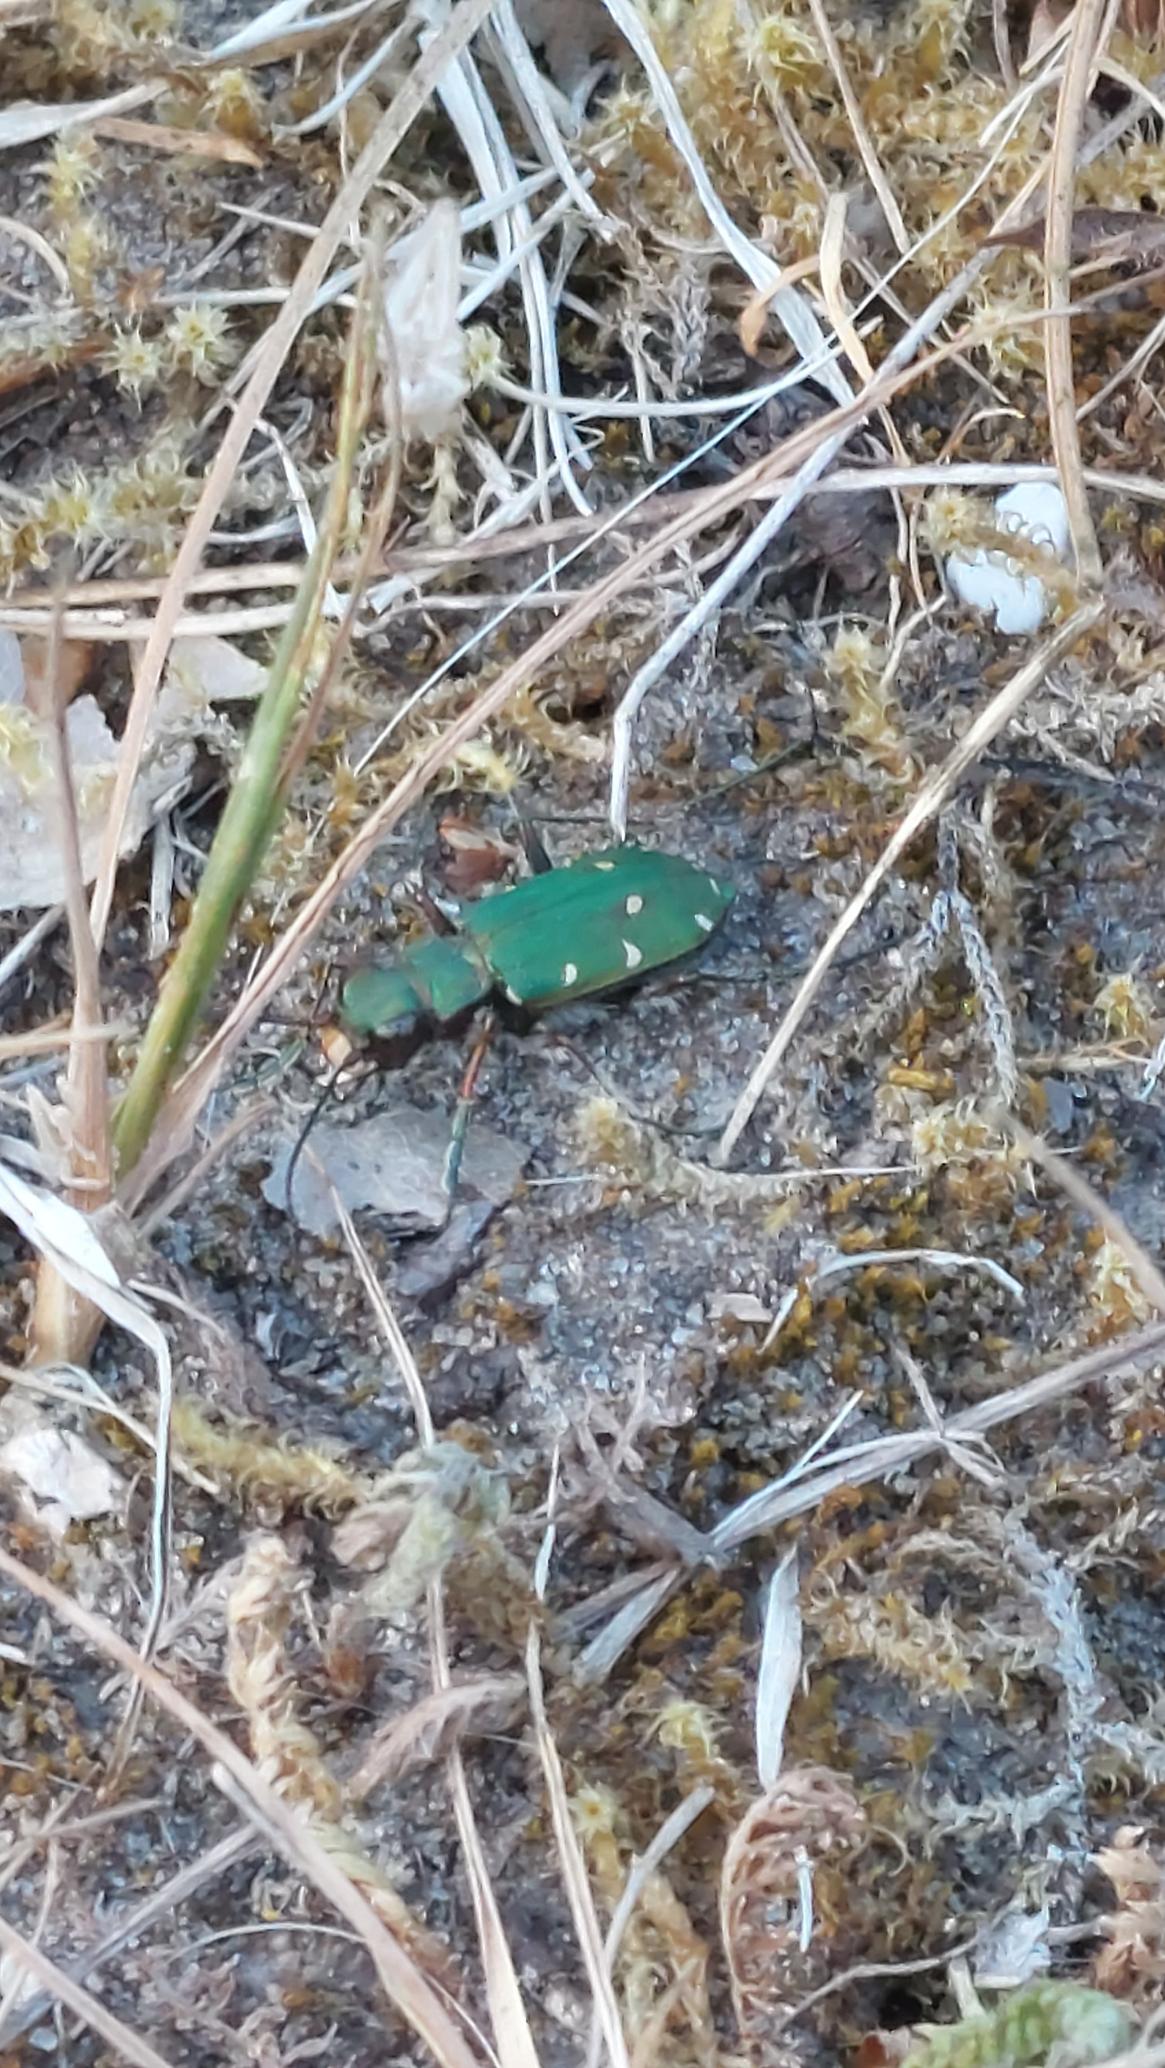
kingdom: Animalia
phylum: Arthropoda
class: Insecta
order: Coleoptera
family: Carabidae
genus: Cicindela
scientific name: Cicindela campestris
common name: Grøn sandspringer
